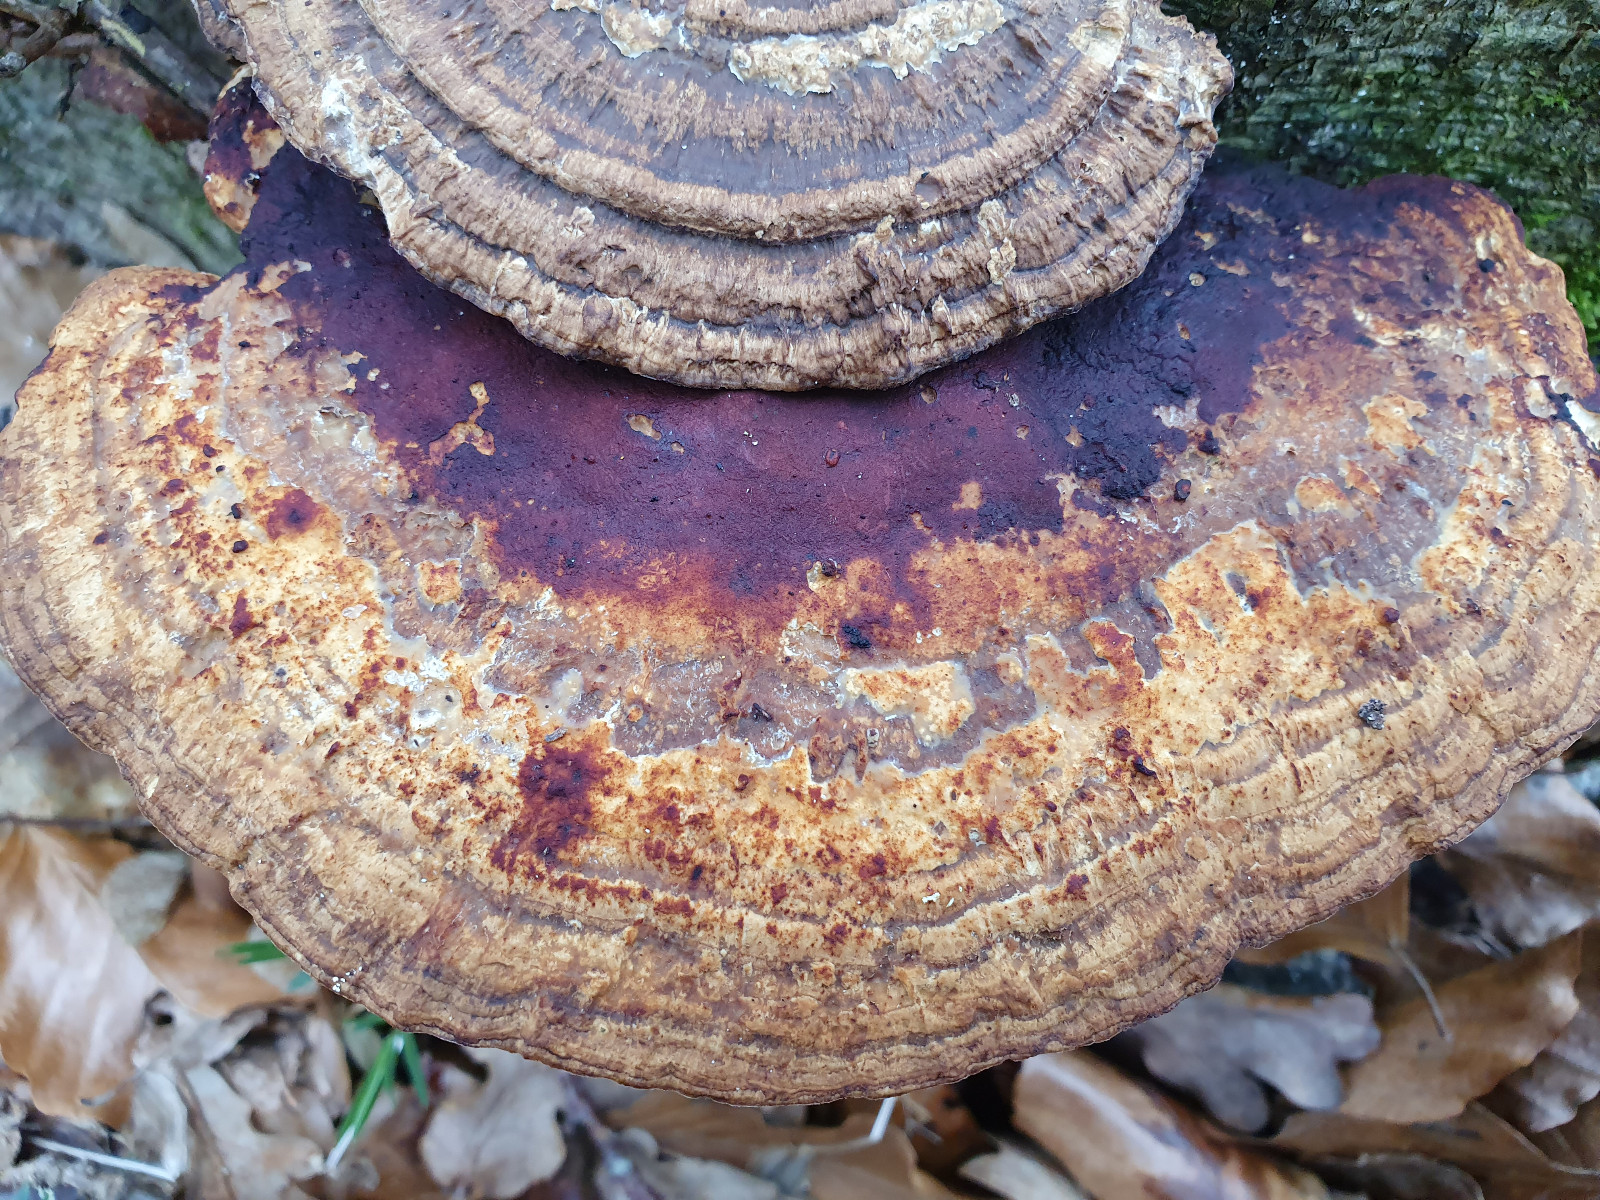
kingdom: Fungi
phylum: Basidiomycota
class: Agaricomycetes
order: Polyporales
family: Polyporaceae
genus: Daedaleopsis
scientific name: Daedaleopsis confragosa
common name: rødmende læderporesvamp
